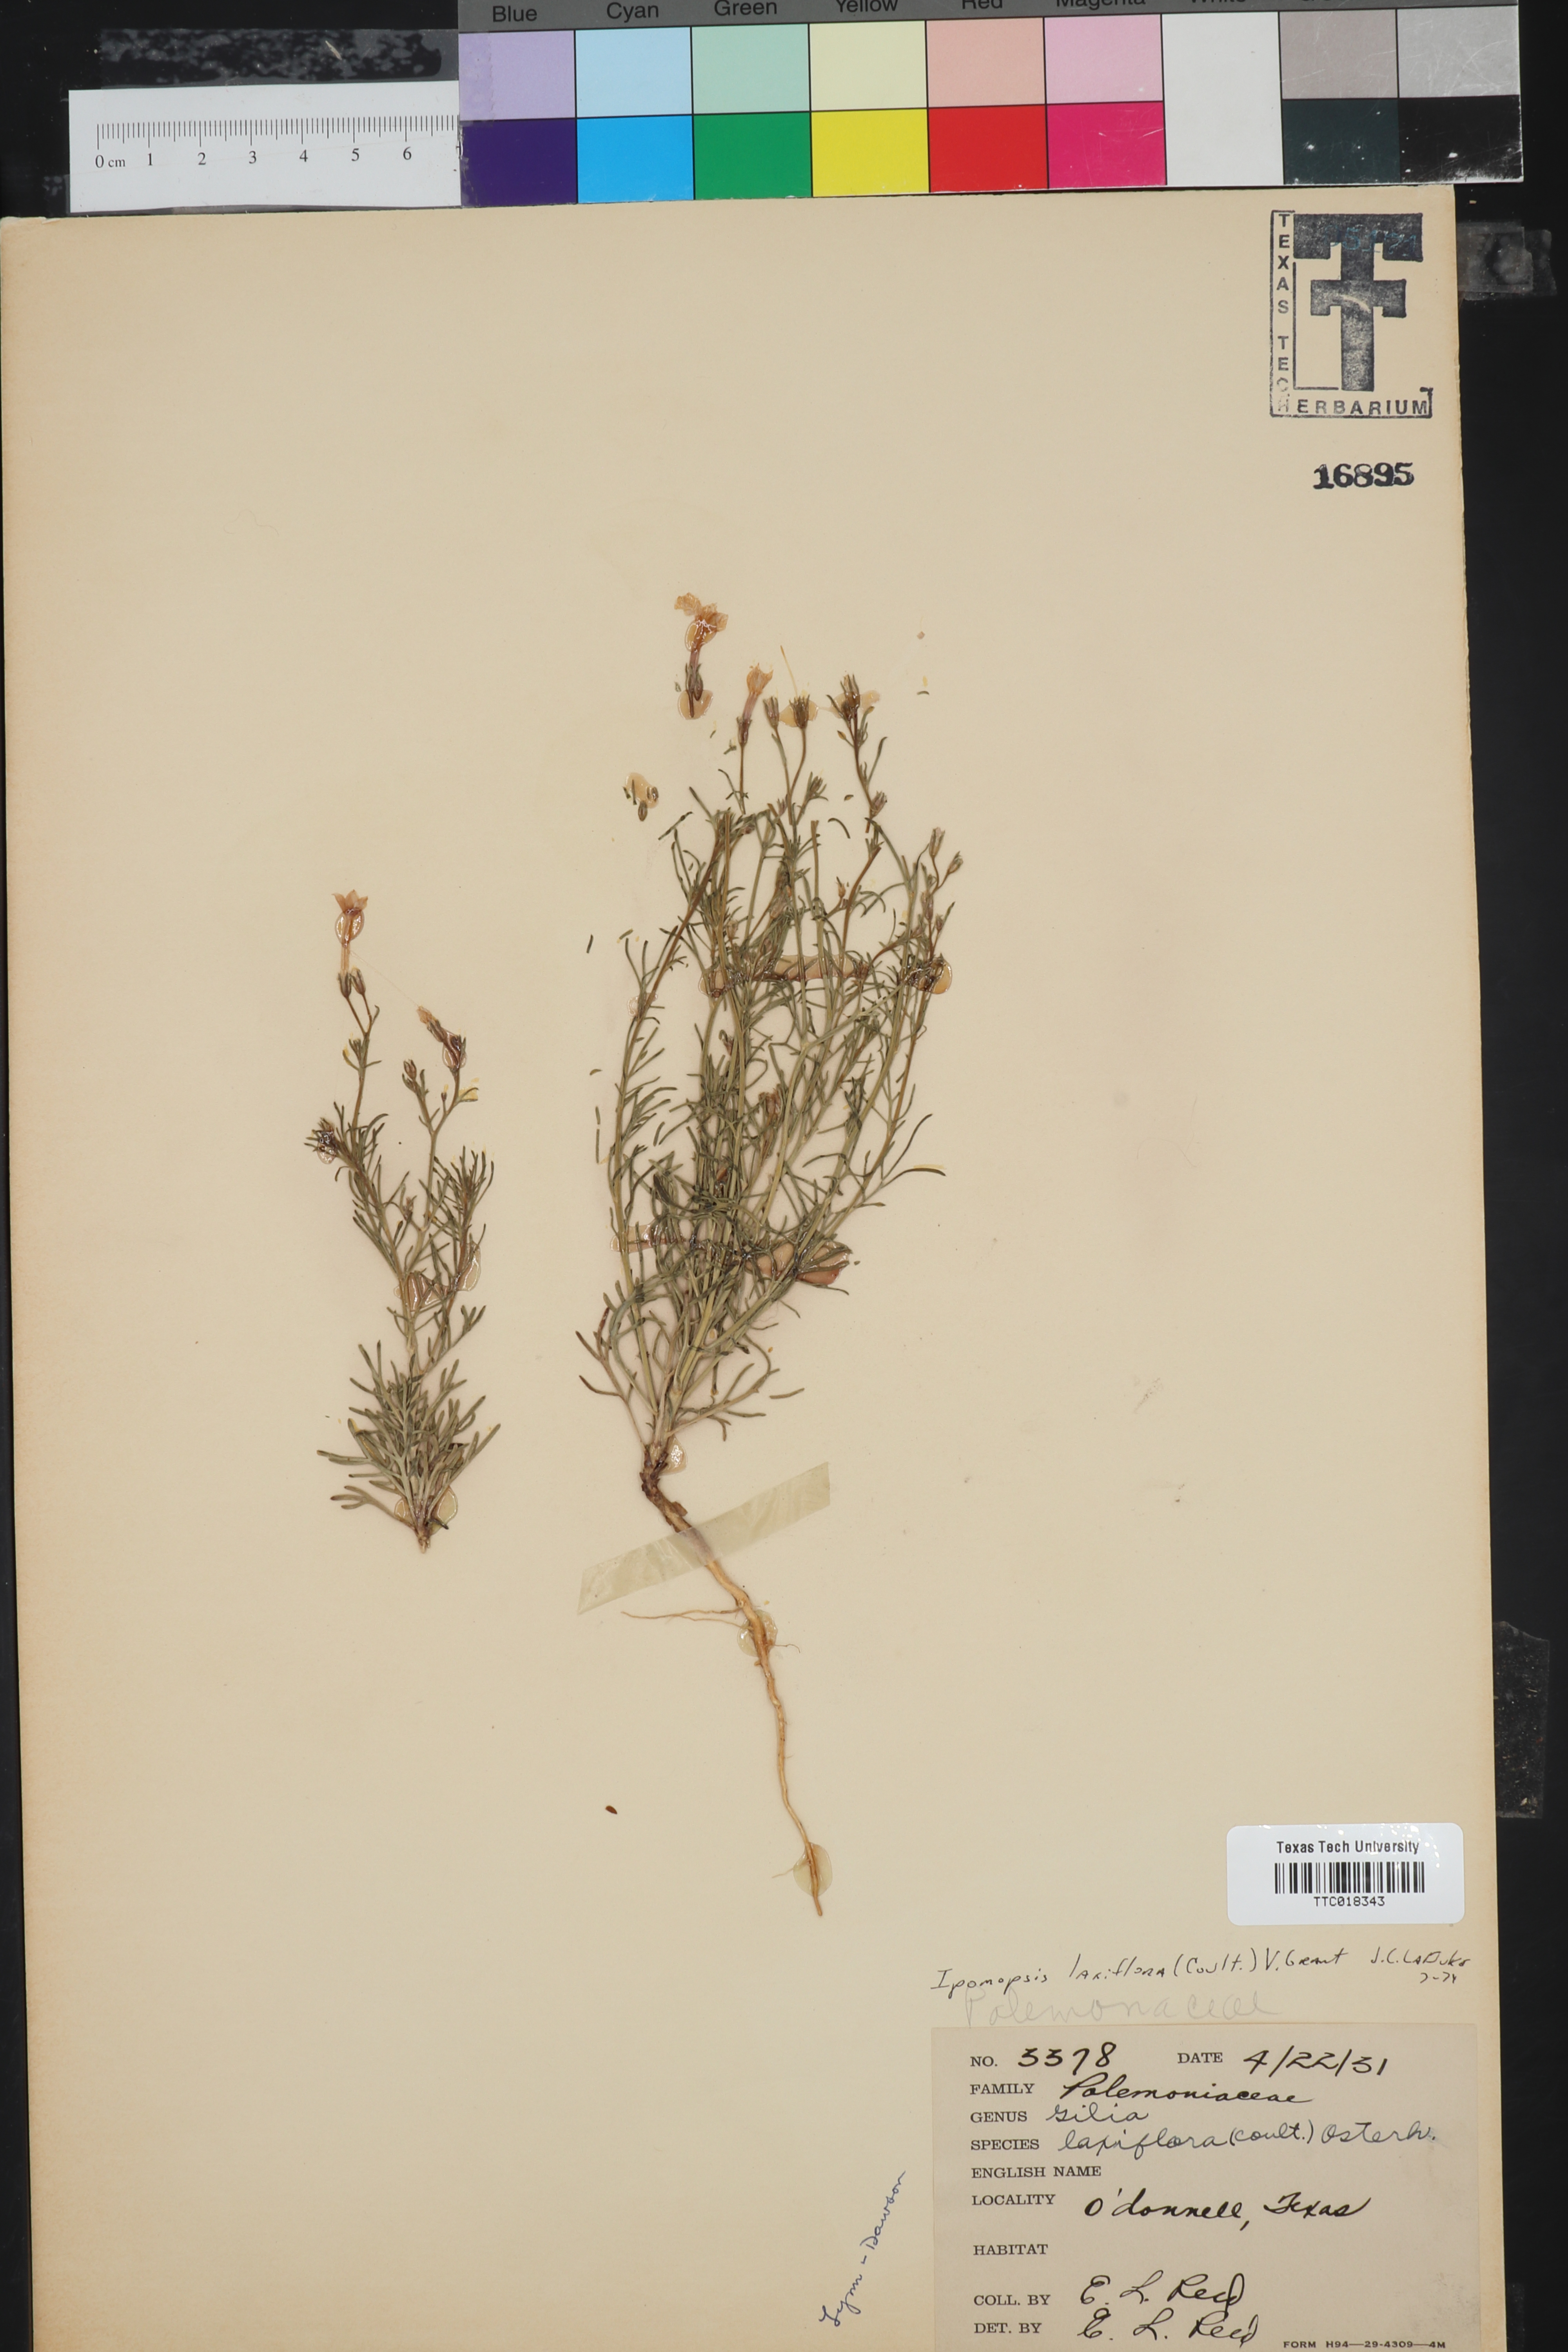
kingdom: Plantae
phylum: Tracheophyta
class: Magnoliopsida
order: Ericales
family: Polemoniaceae
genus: Ipomopsis
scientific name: Ipomopsis laxiflora
